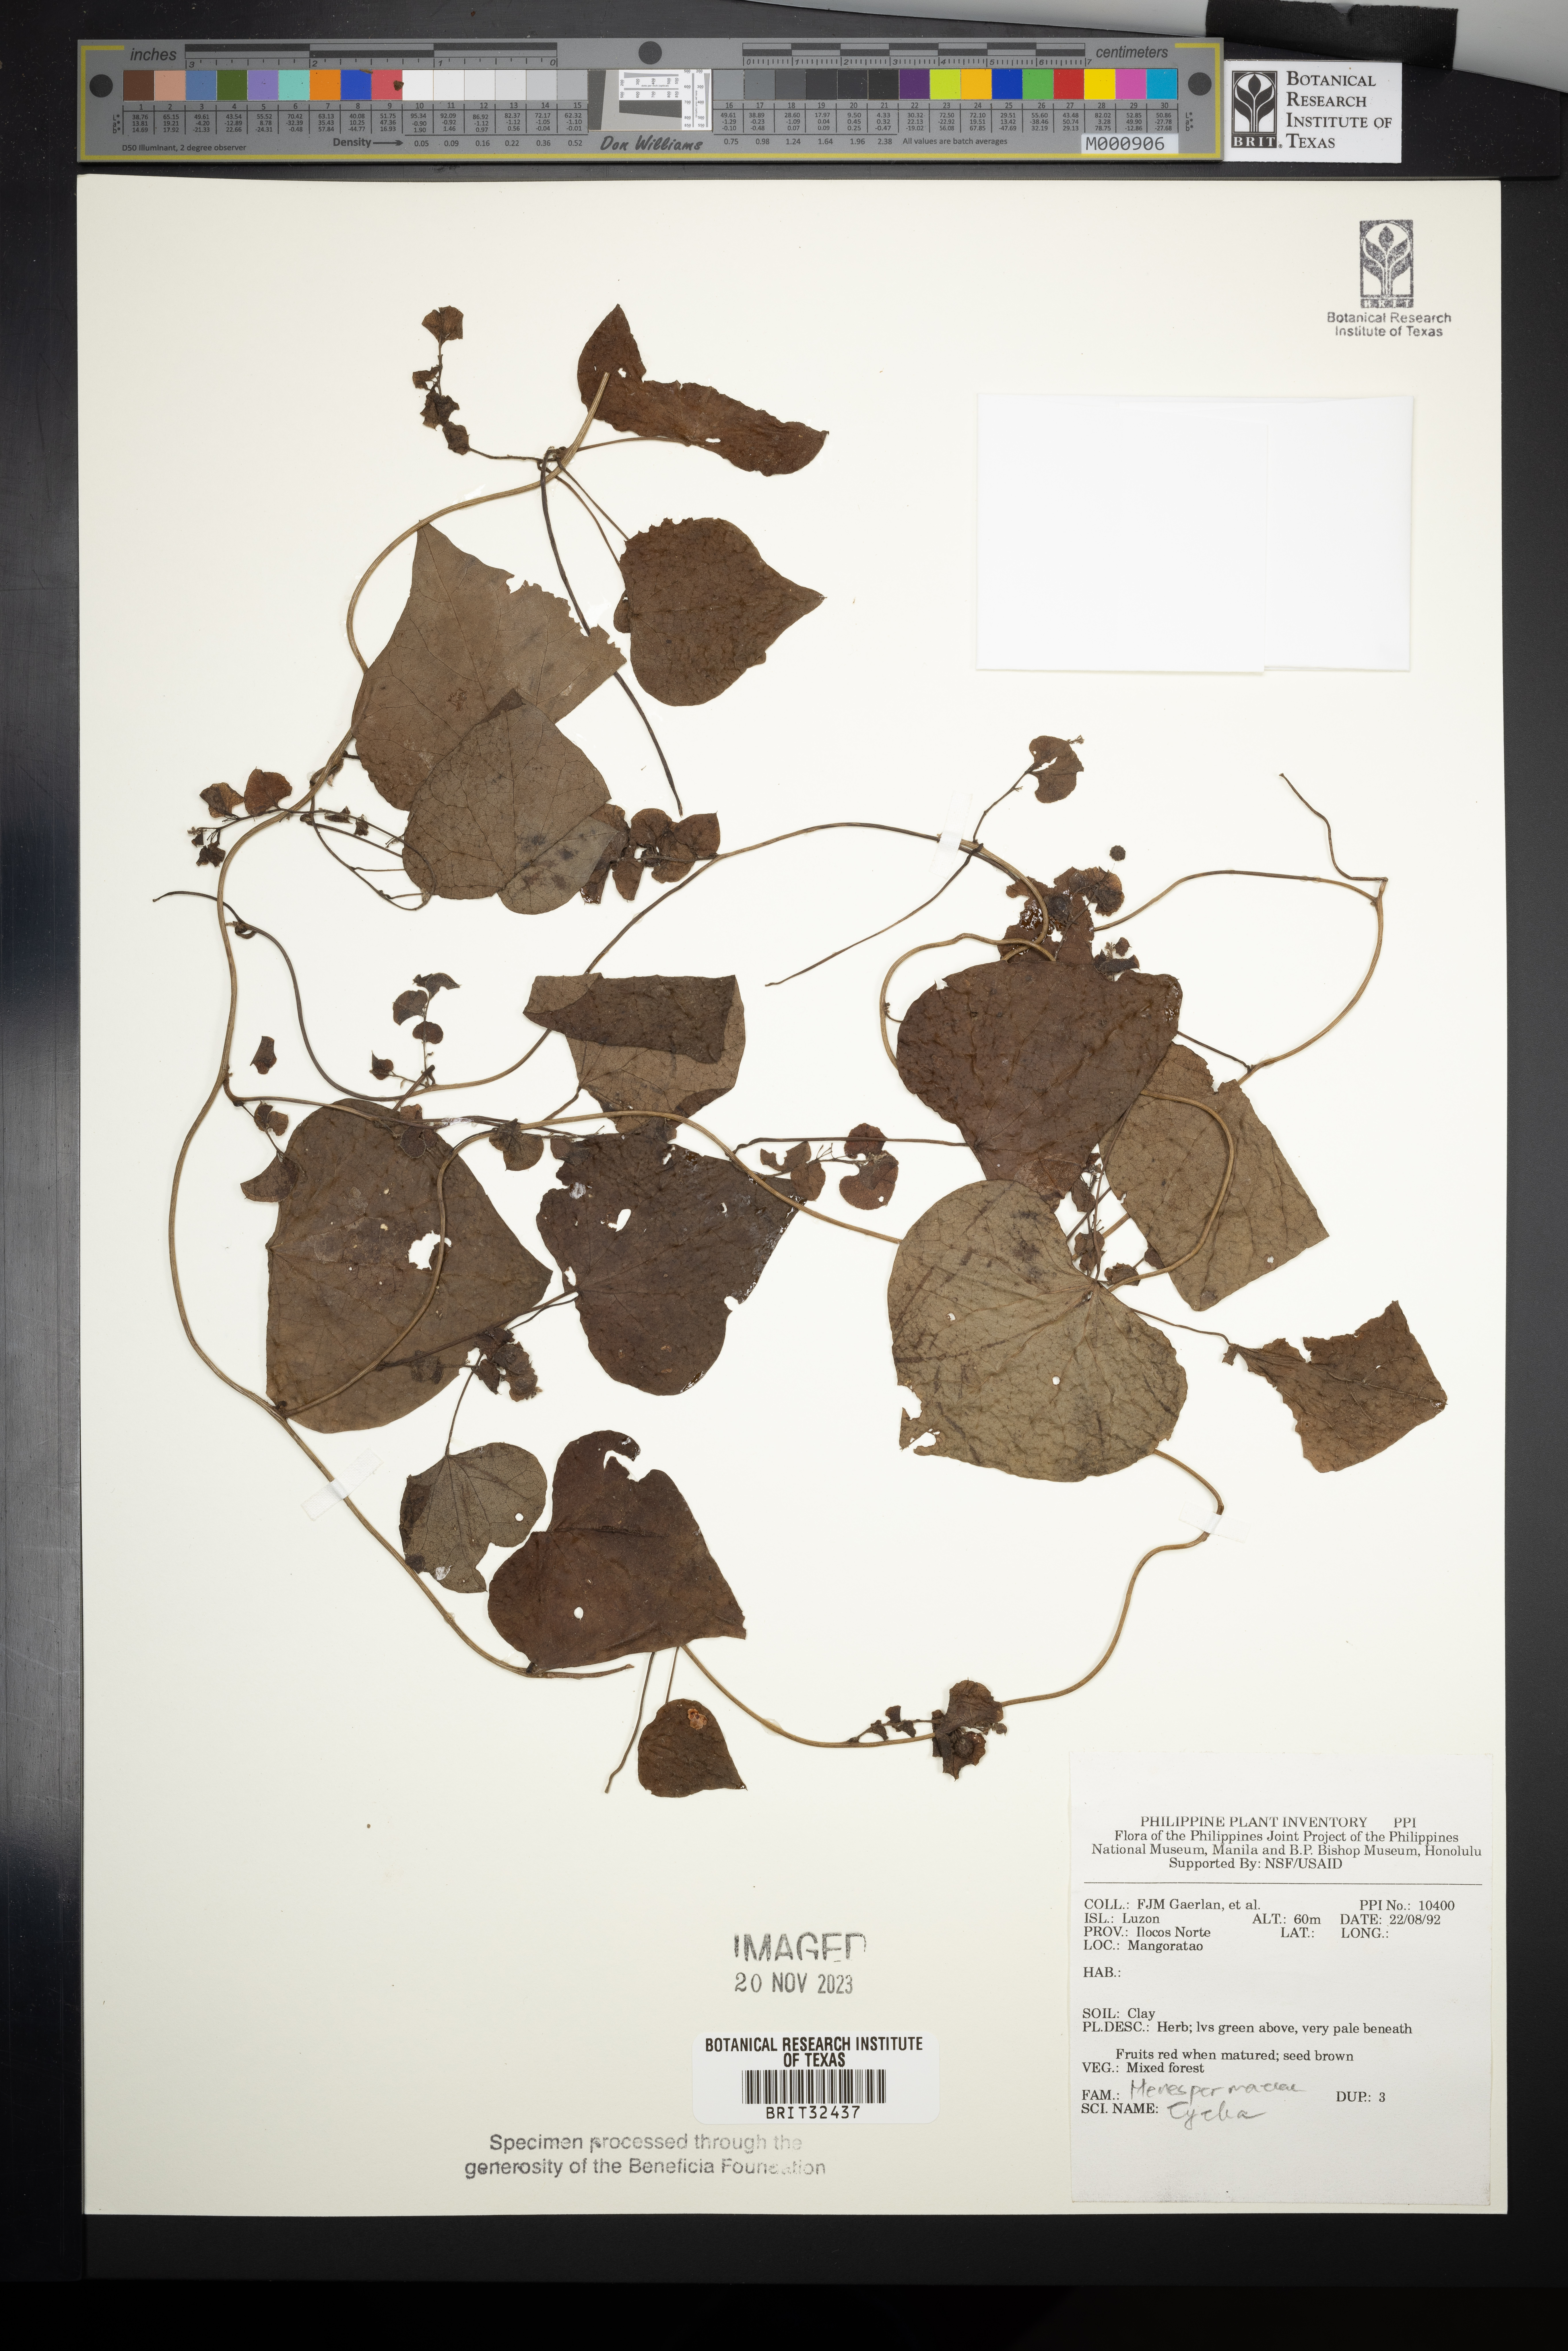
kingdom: Plantae
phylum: Tracheophyta
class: Magnoliopsida
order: Ranunculales
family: Menispermaceae
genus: Cyclea
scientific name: Cyclea
